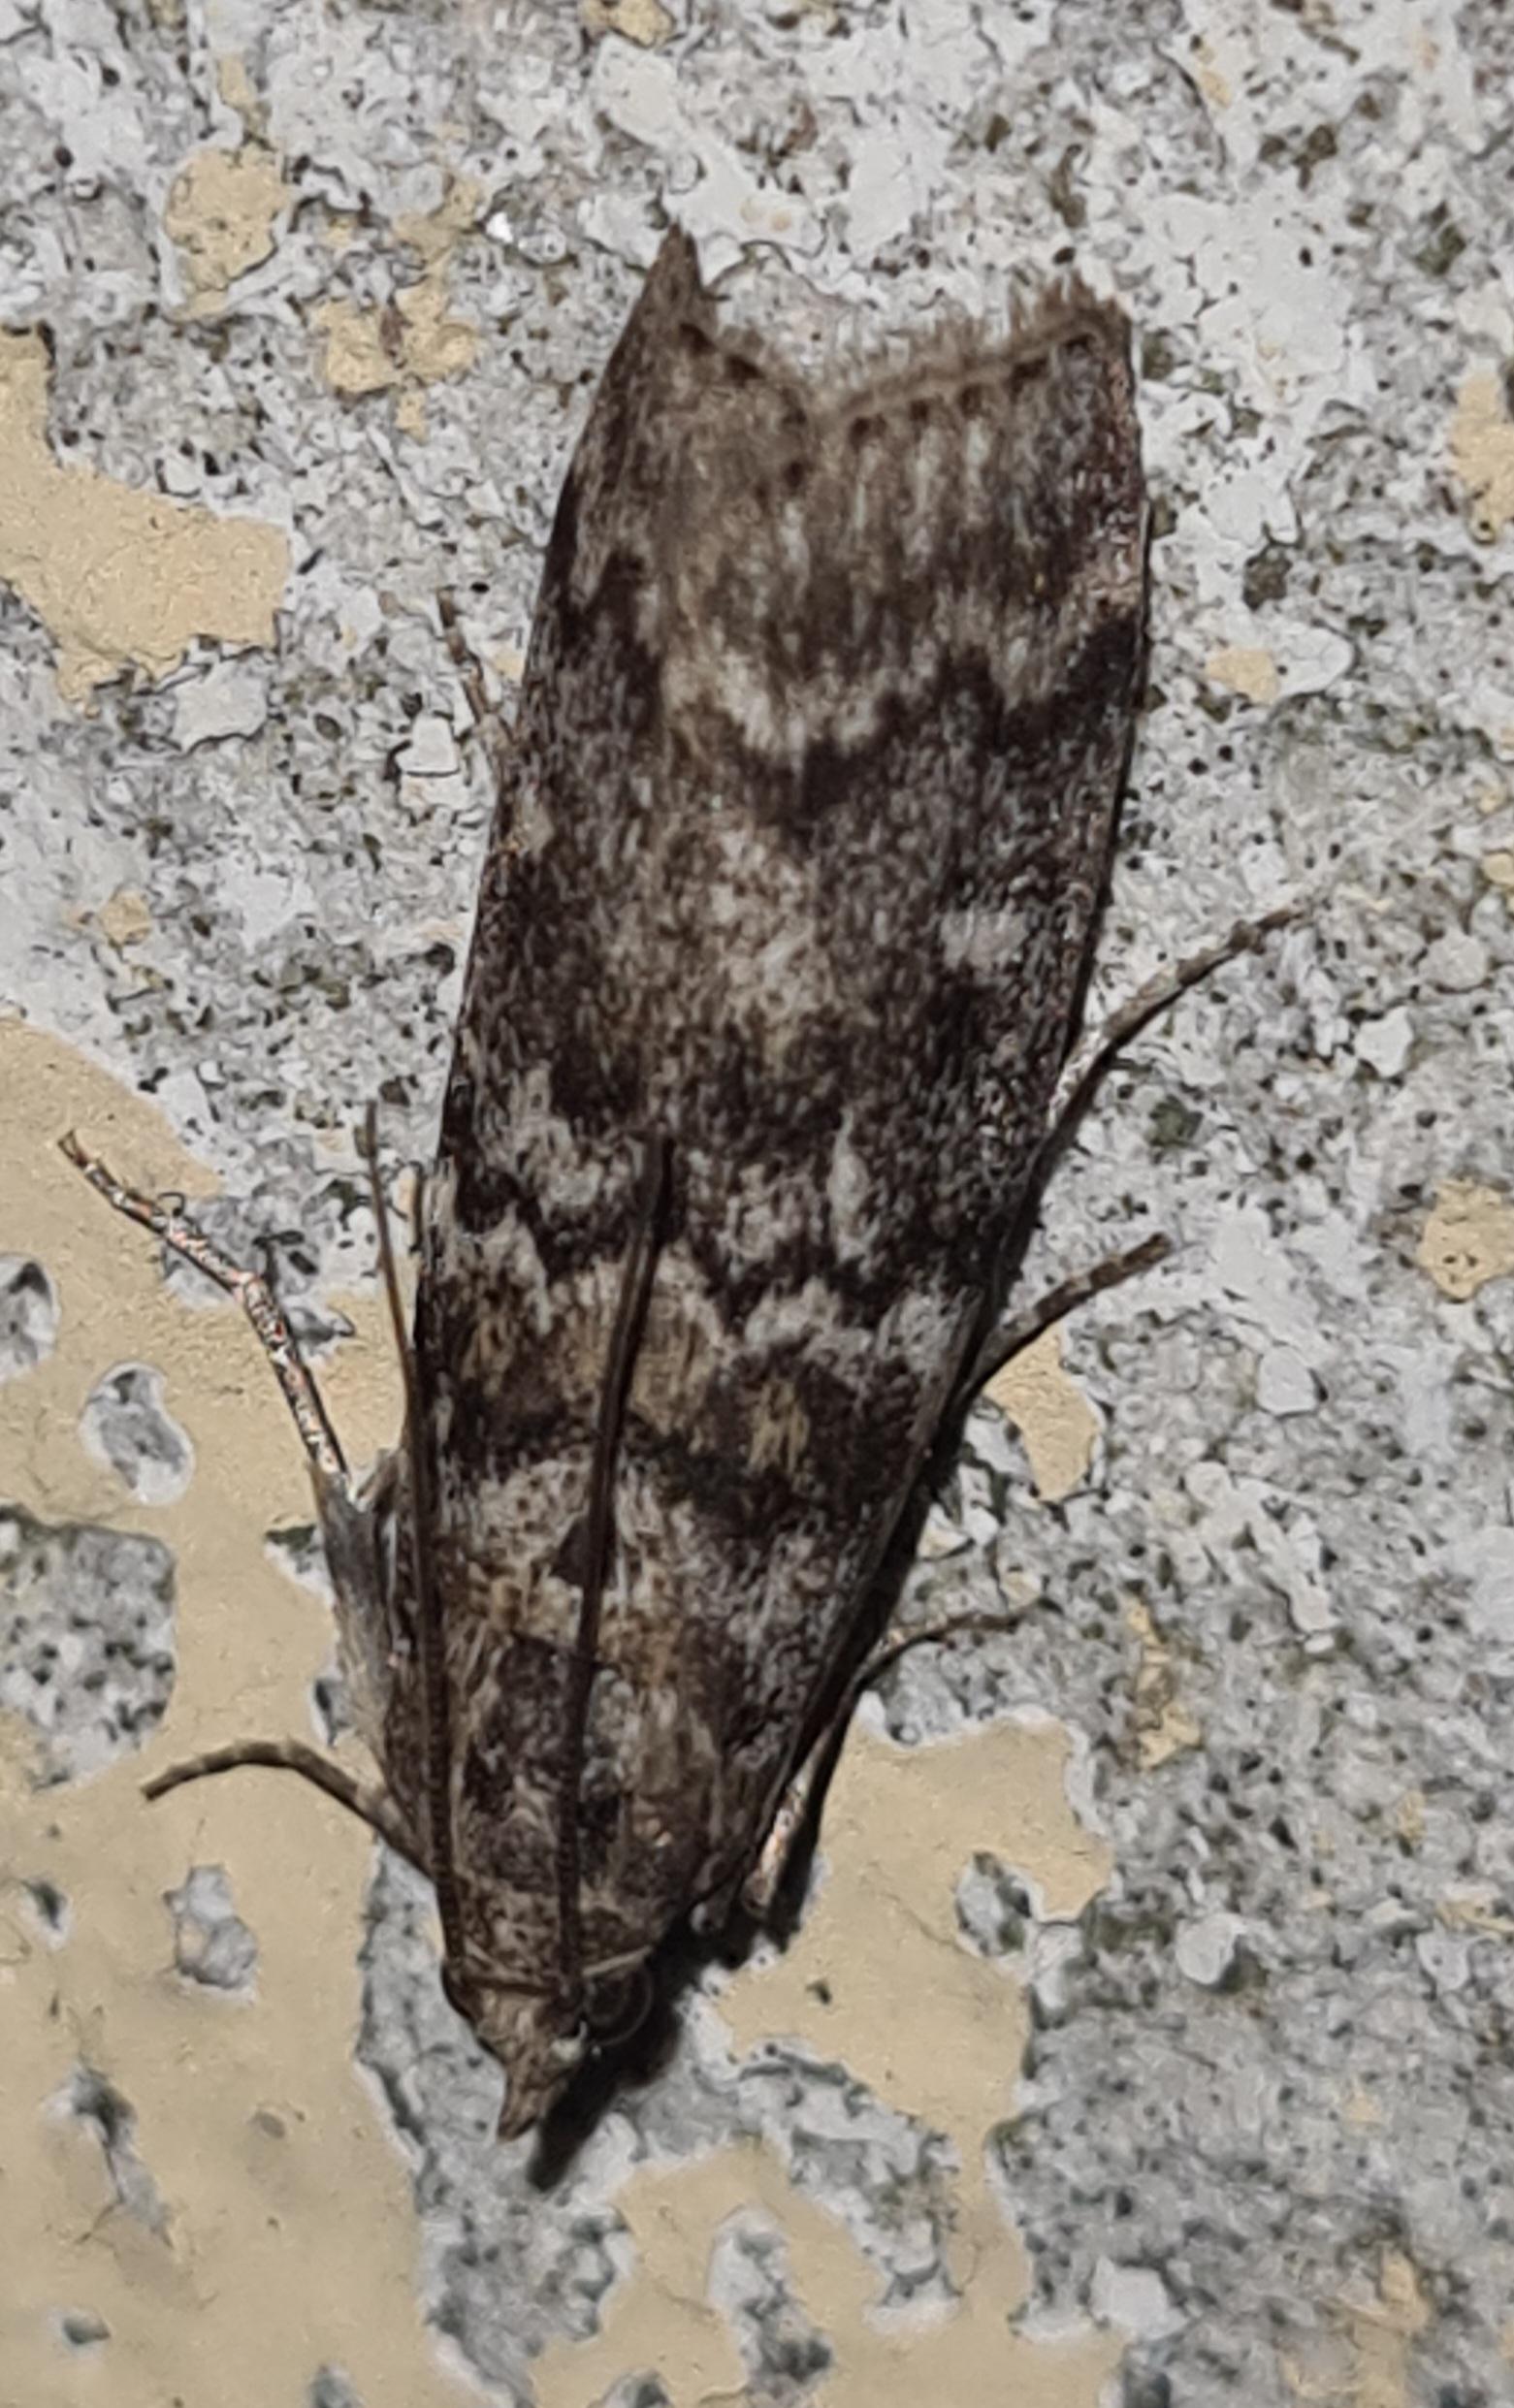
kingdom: Animalia
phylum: Arthropoda
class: Insecta
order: Lepidoptera
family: Pyralidae
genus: Dioryctria
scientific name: Dioryctria
